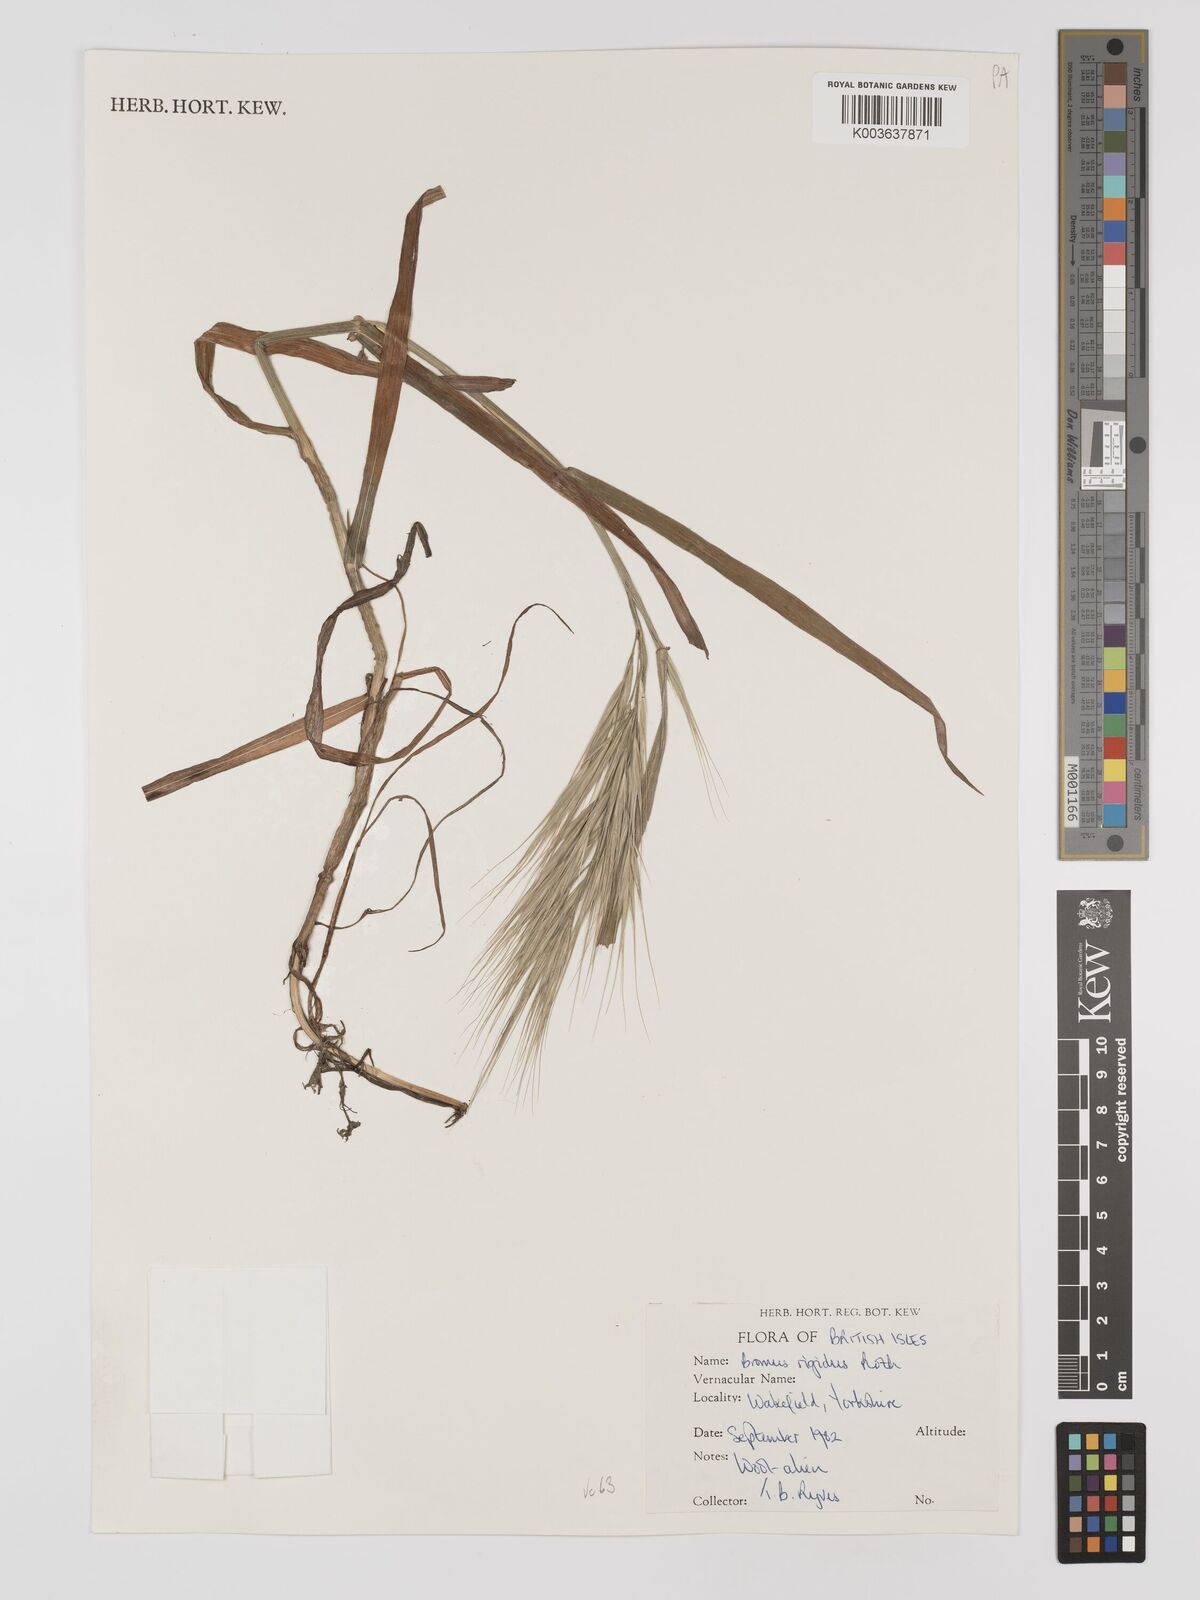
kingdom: Plantae
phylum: Tracheophyta
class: Liliopsida
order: Poales
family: Poaceae
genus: Bromus
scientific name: Bromus
